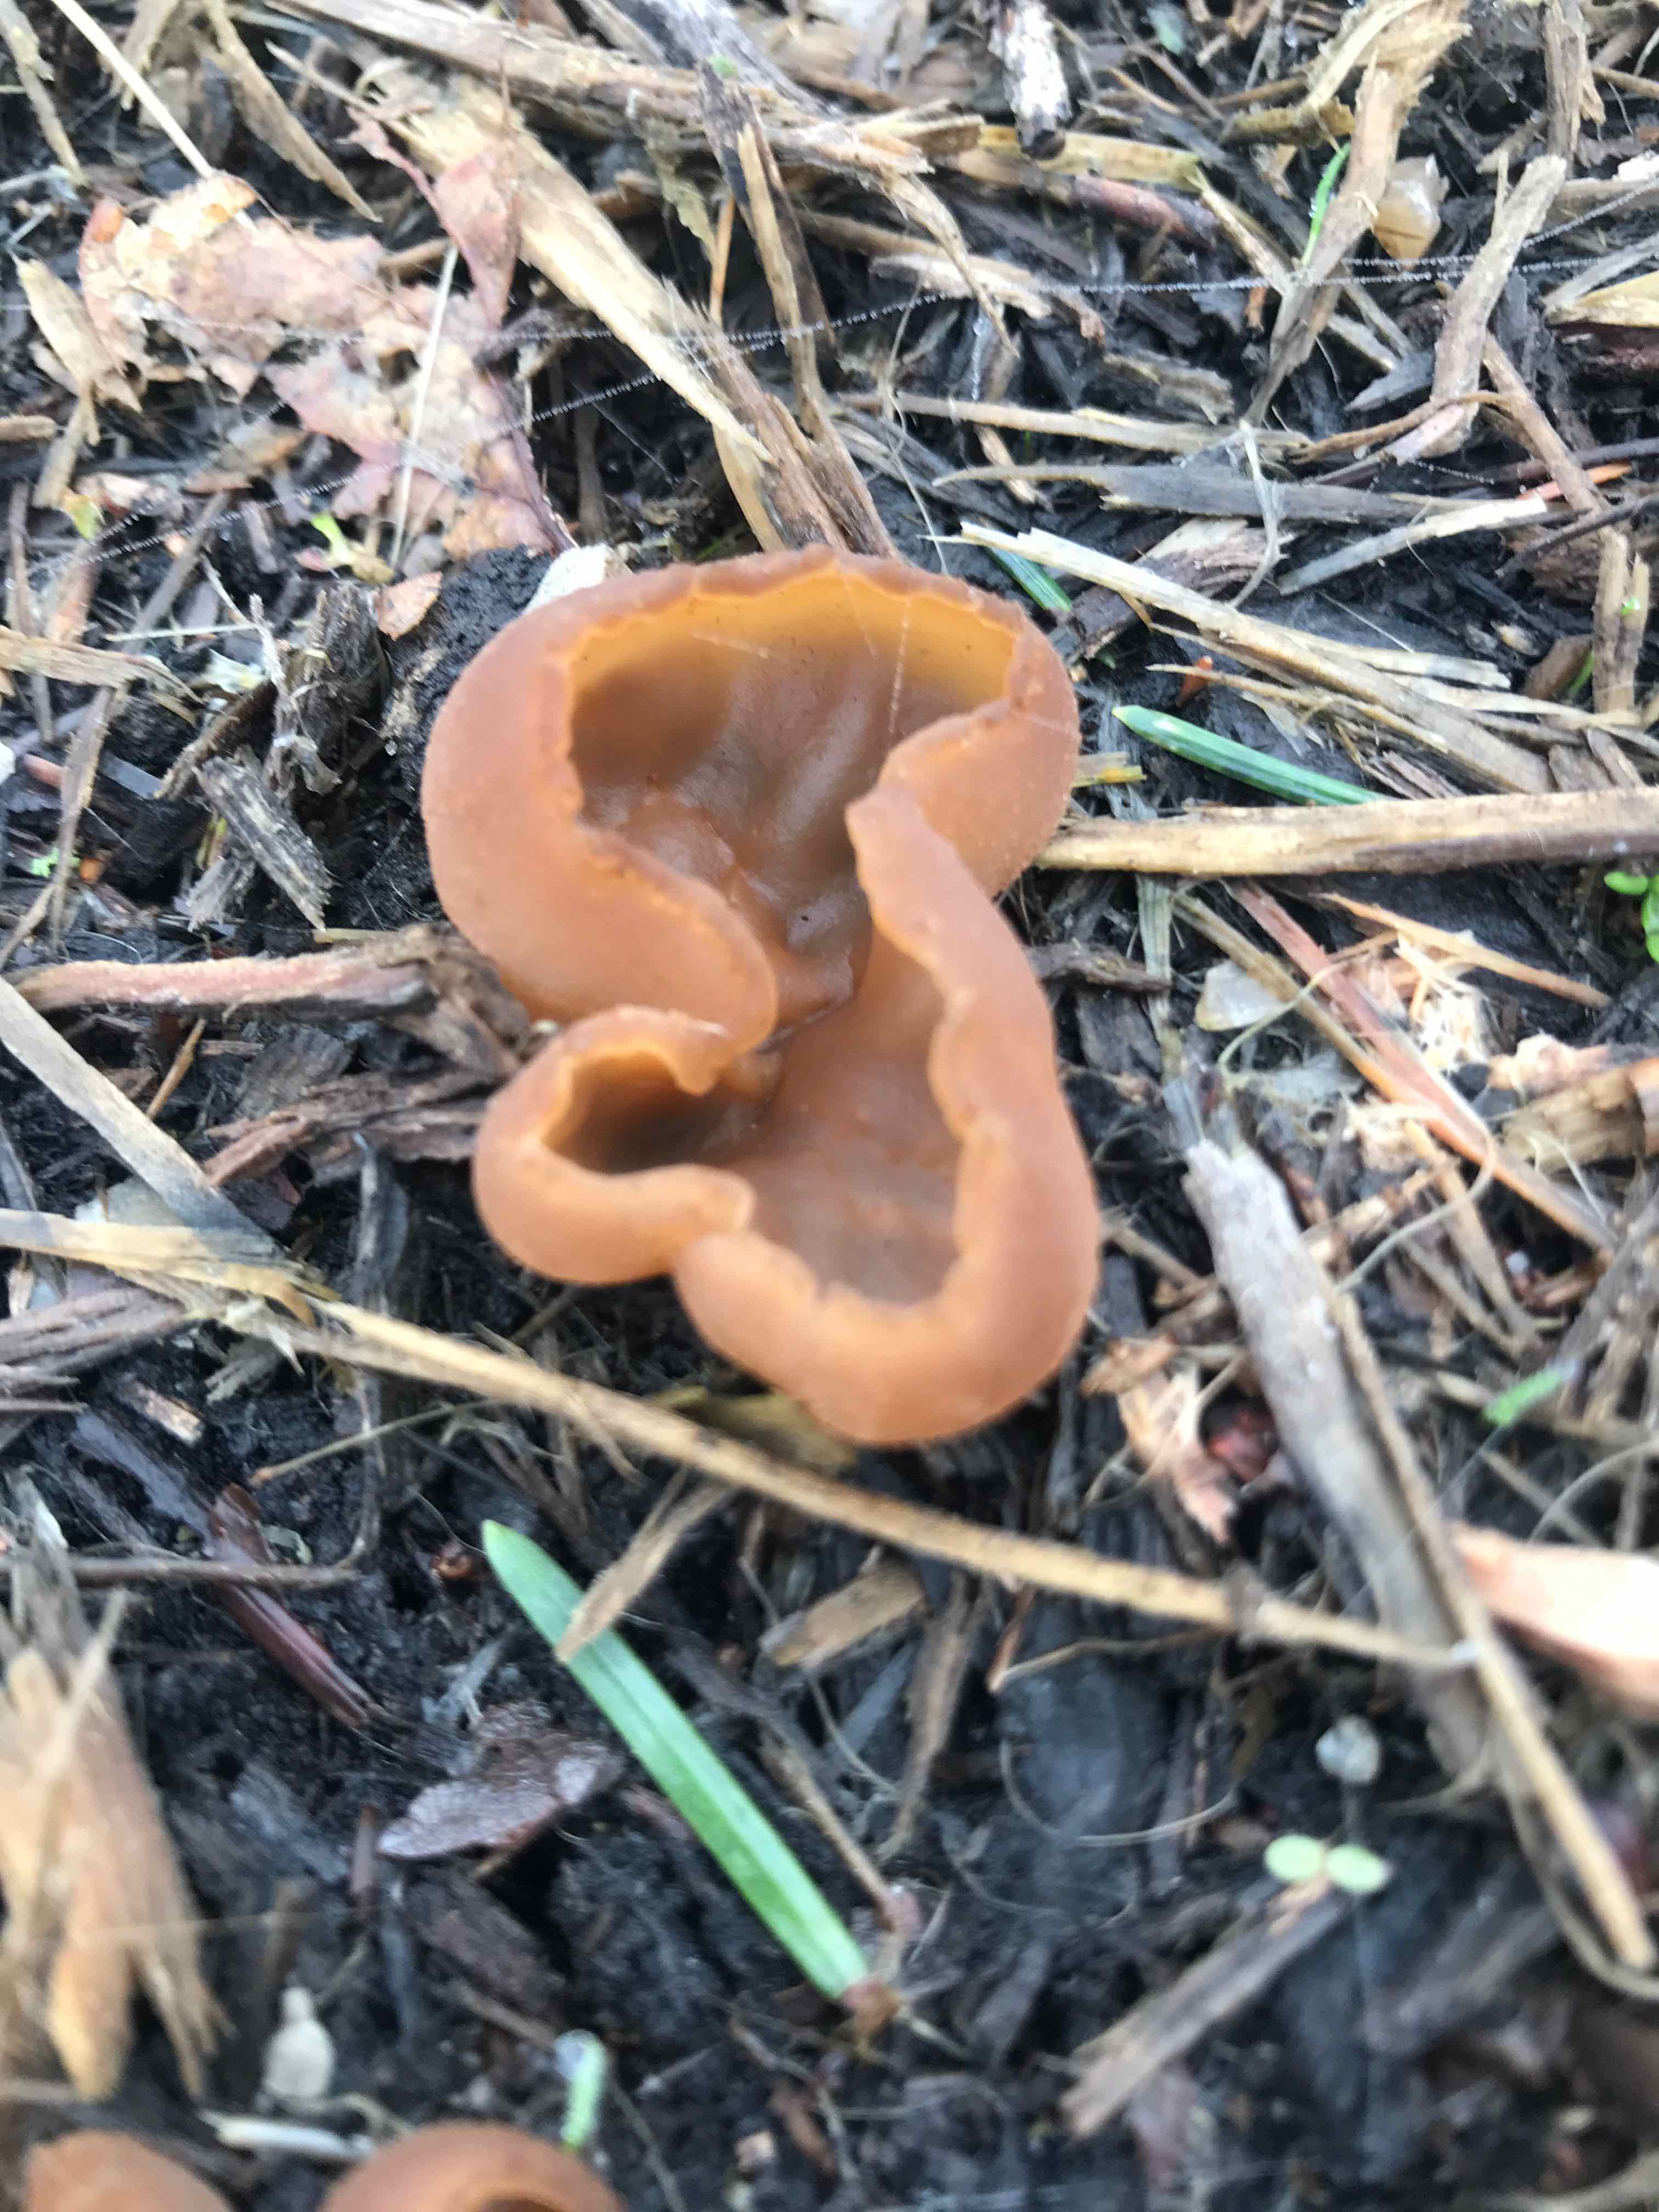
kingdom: Fungi
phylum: Ascomycota
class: Pezizomycetes
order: Pezizales
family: Pezizaceae
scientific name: Pezizaceae
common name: bægersvampfamilien
